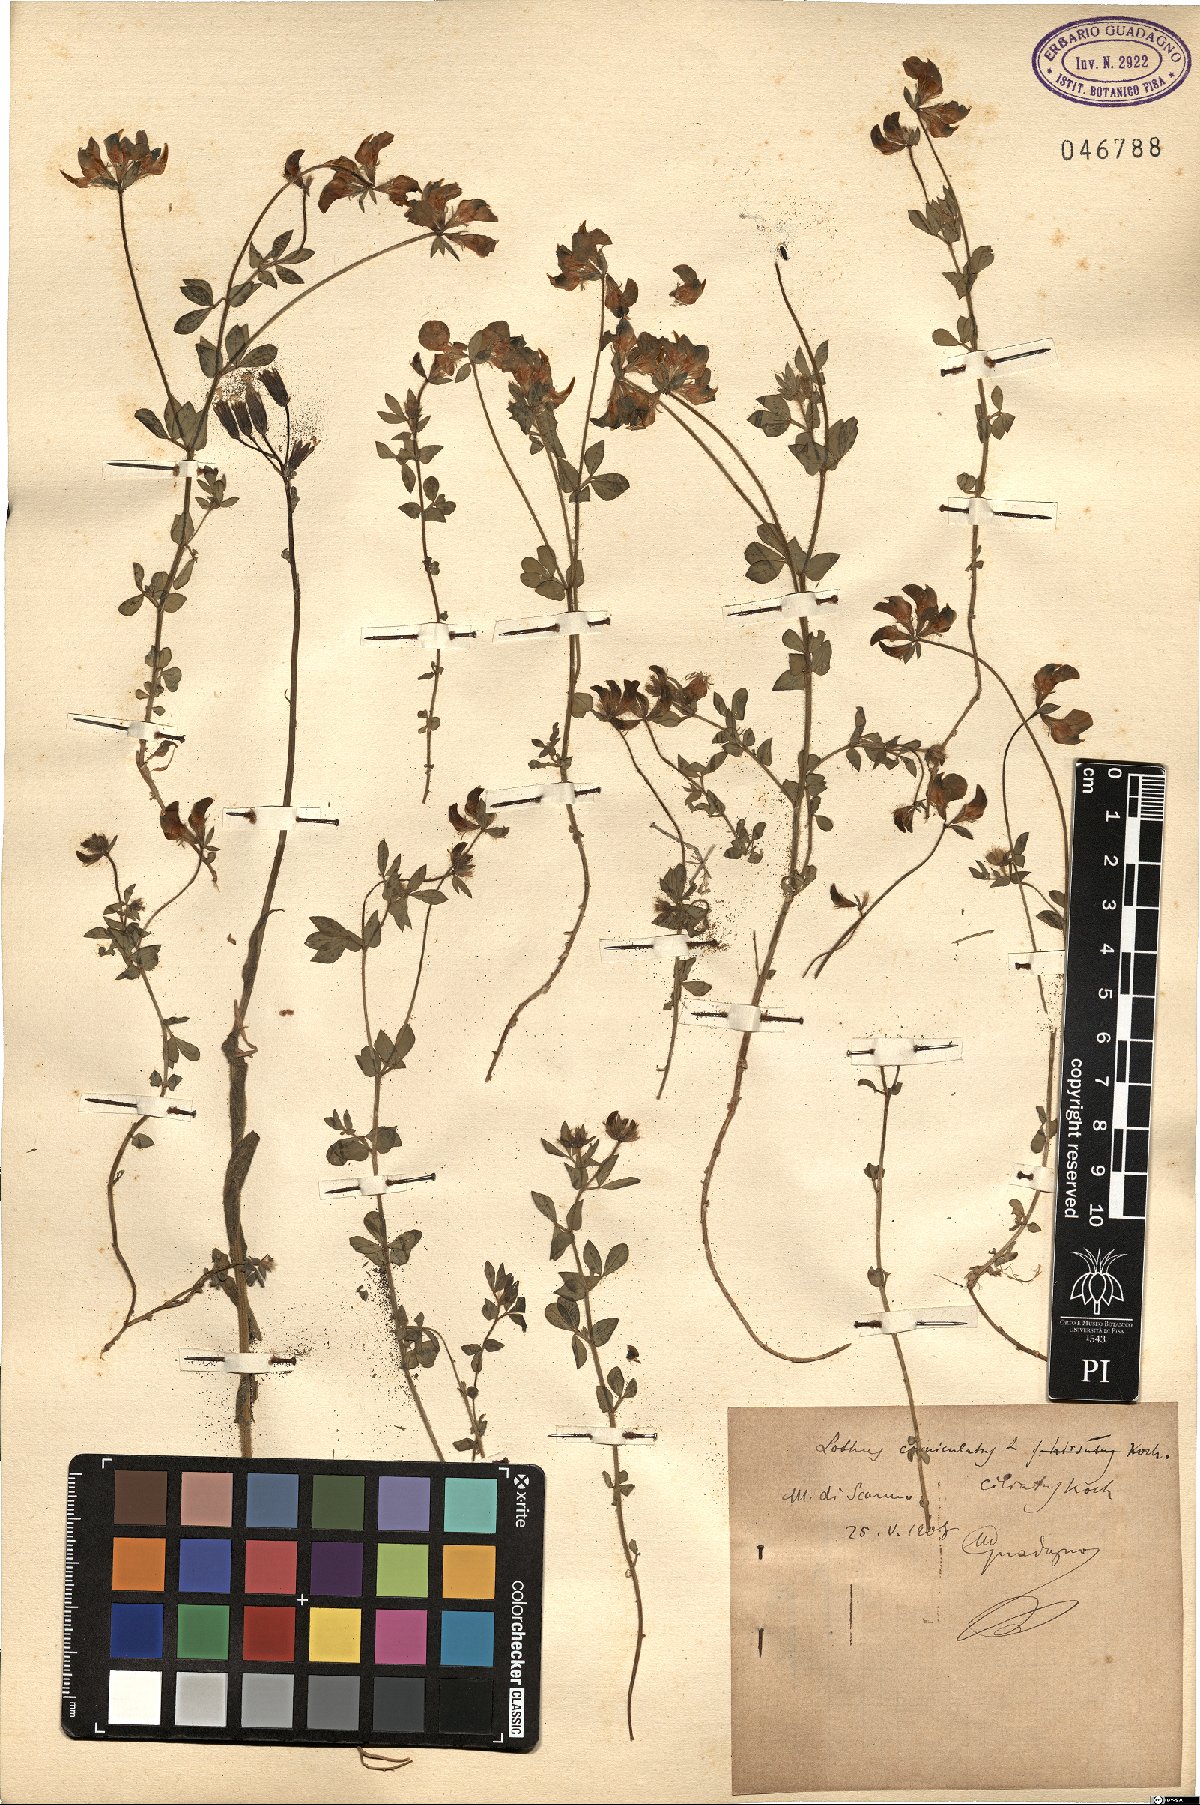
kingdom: Plantae
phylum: Tracheophyta
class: Magnoliopsida
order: Fabales
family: Fabaceae
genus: Lotus
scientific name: Lotus angustissimus
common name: Slender bird's-foot trefoil
